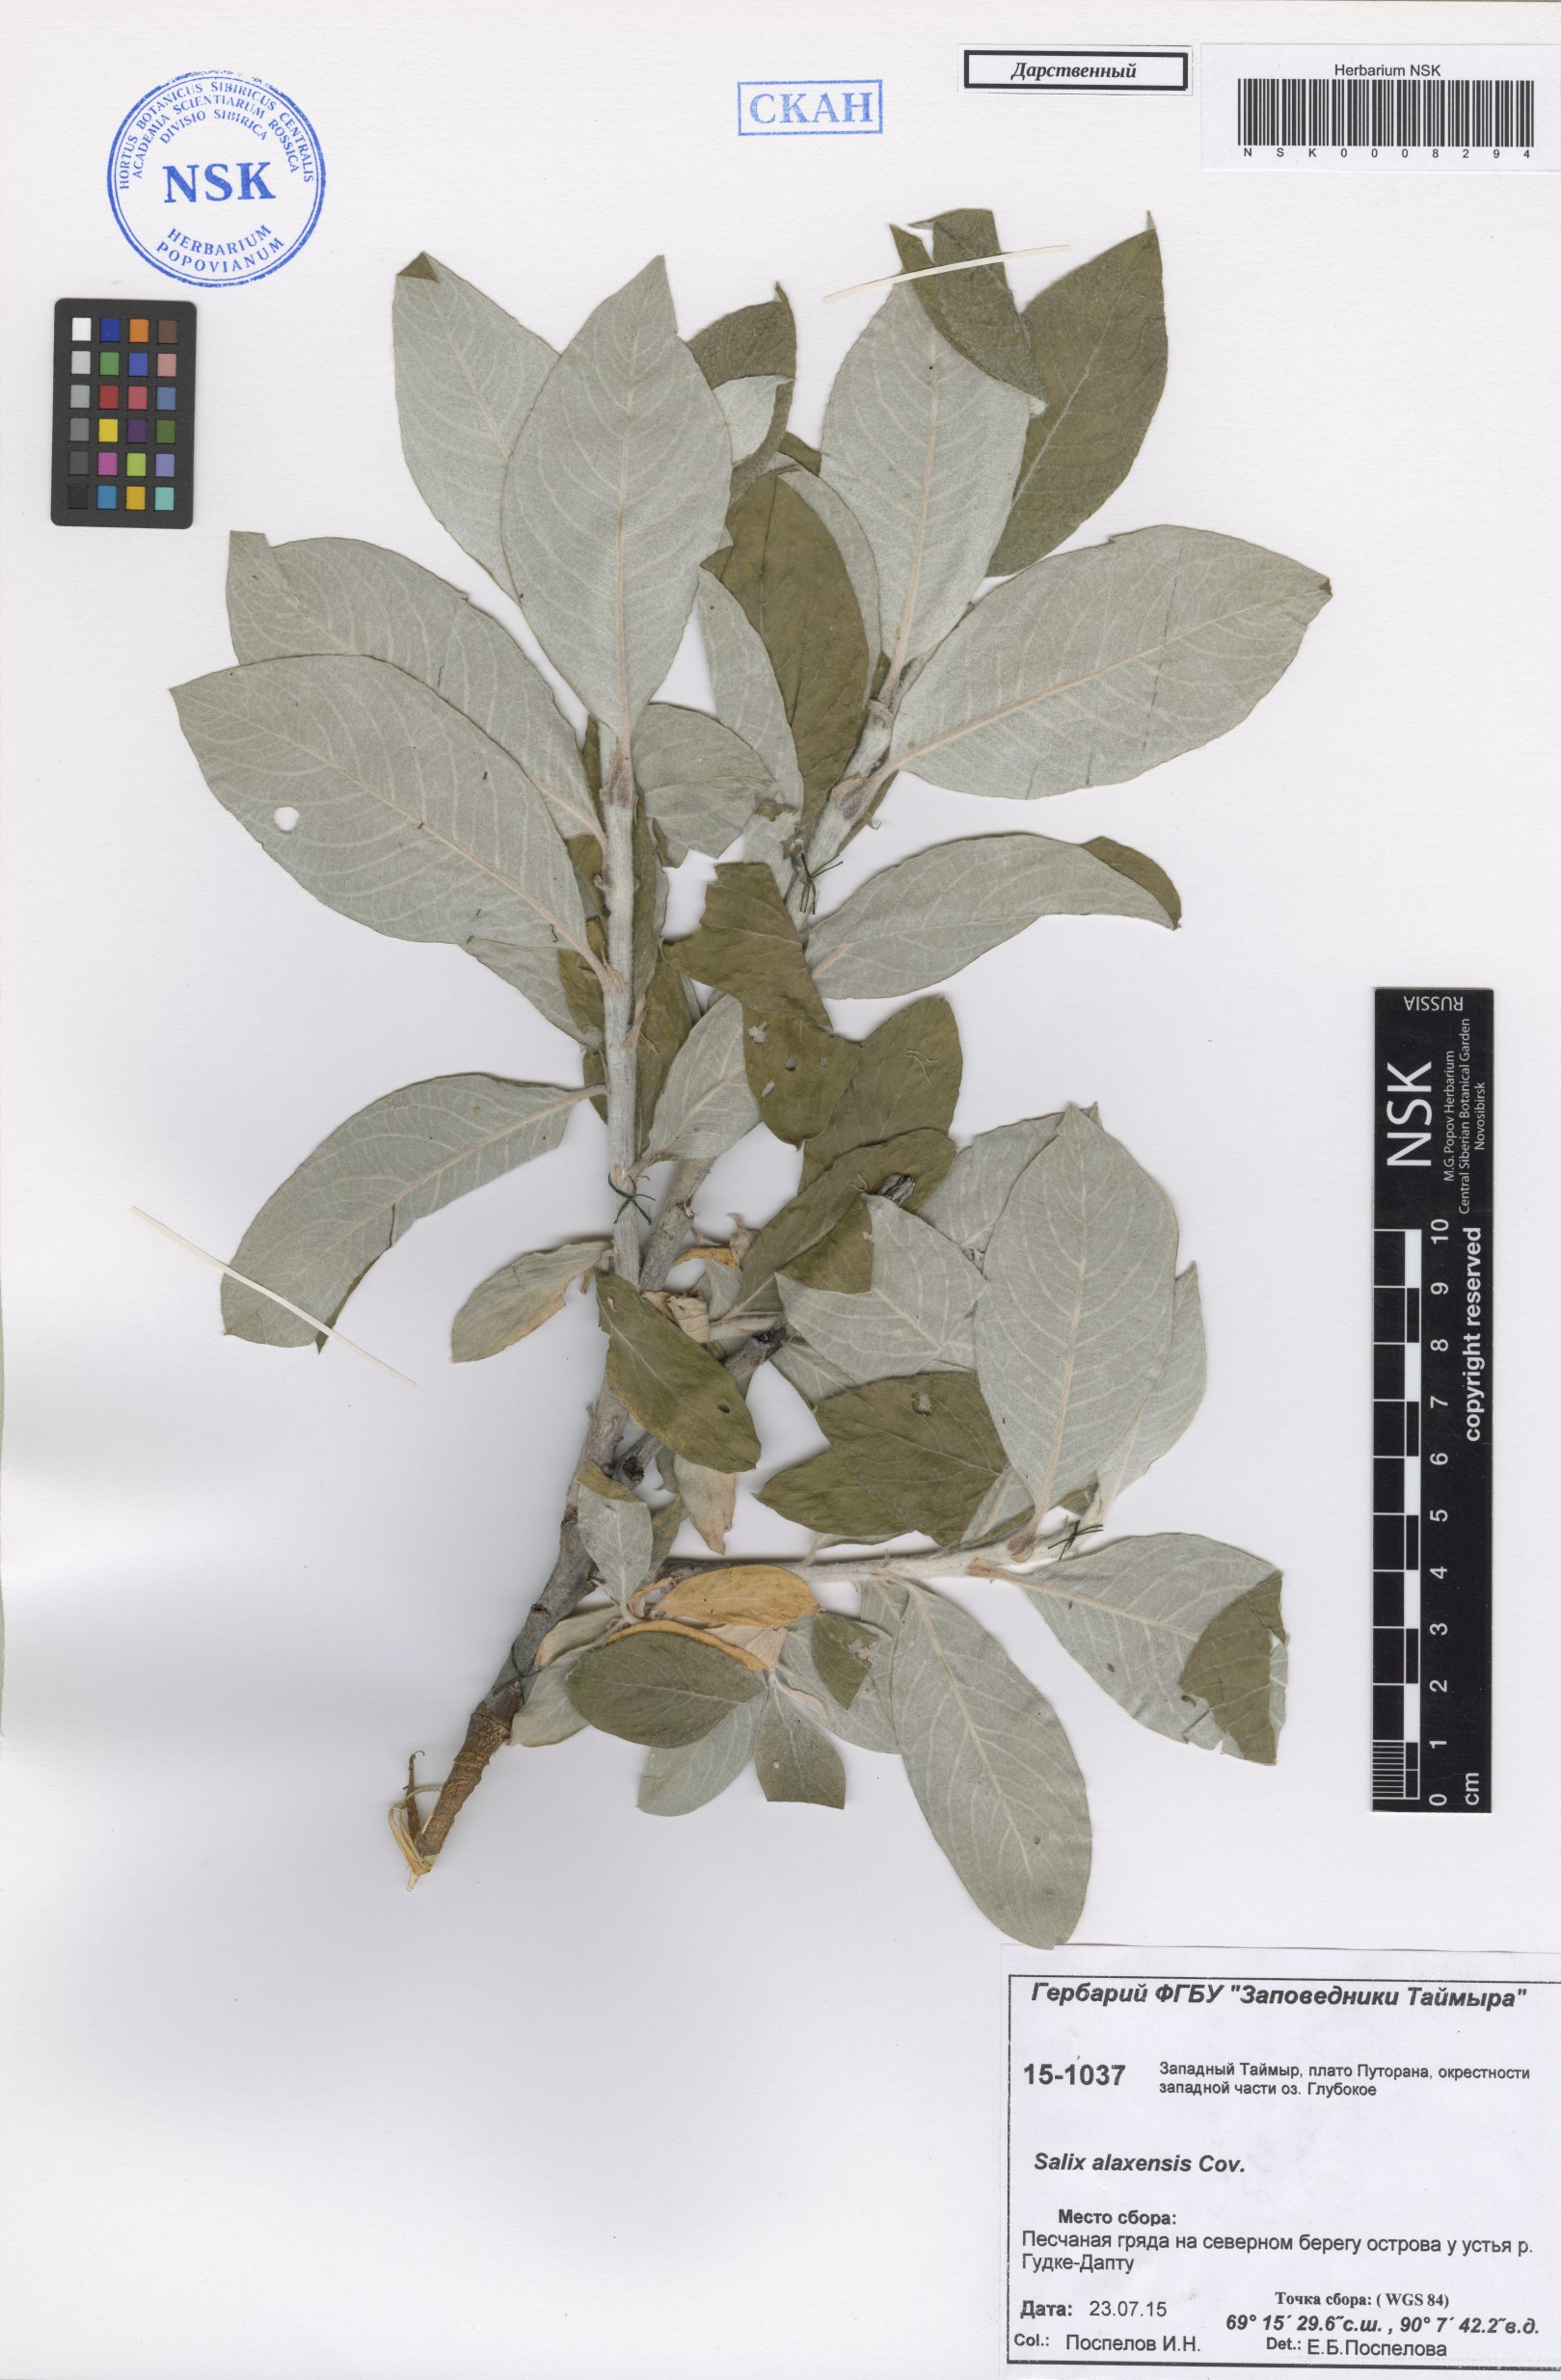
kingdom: Plantae
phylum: Tracheophyta
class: Magnoliopsida
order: Malpighiales
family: Salicaceae
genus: Salix
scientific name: Salix alaxensis
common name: Feltleaf willow
